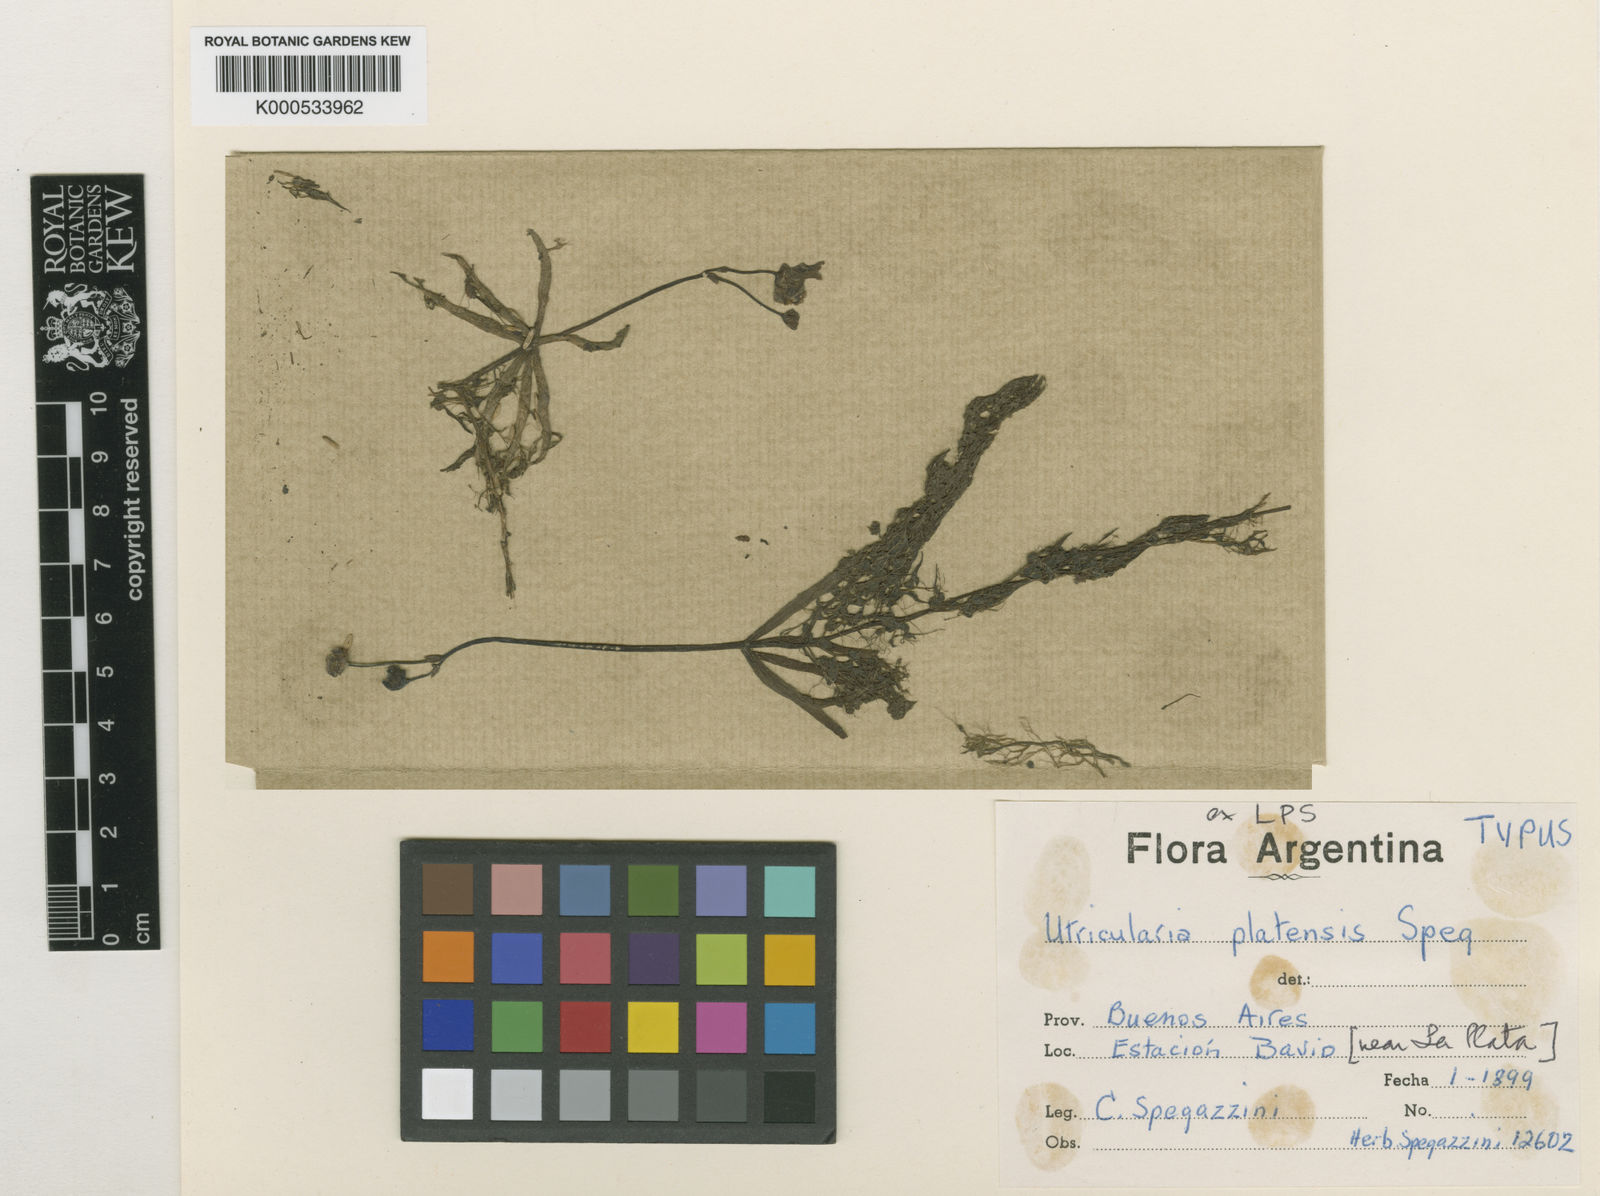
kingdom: Plantae
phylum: Tracheophyta
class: Magnoliopsida
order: Lamiales
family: Lentibulariaceae
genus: Utricularia
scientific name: Utricularia platensis
